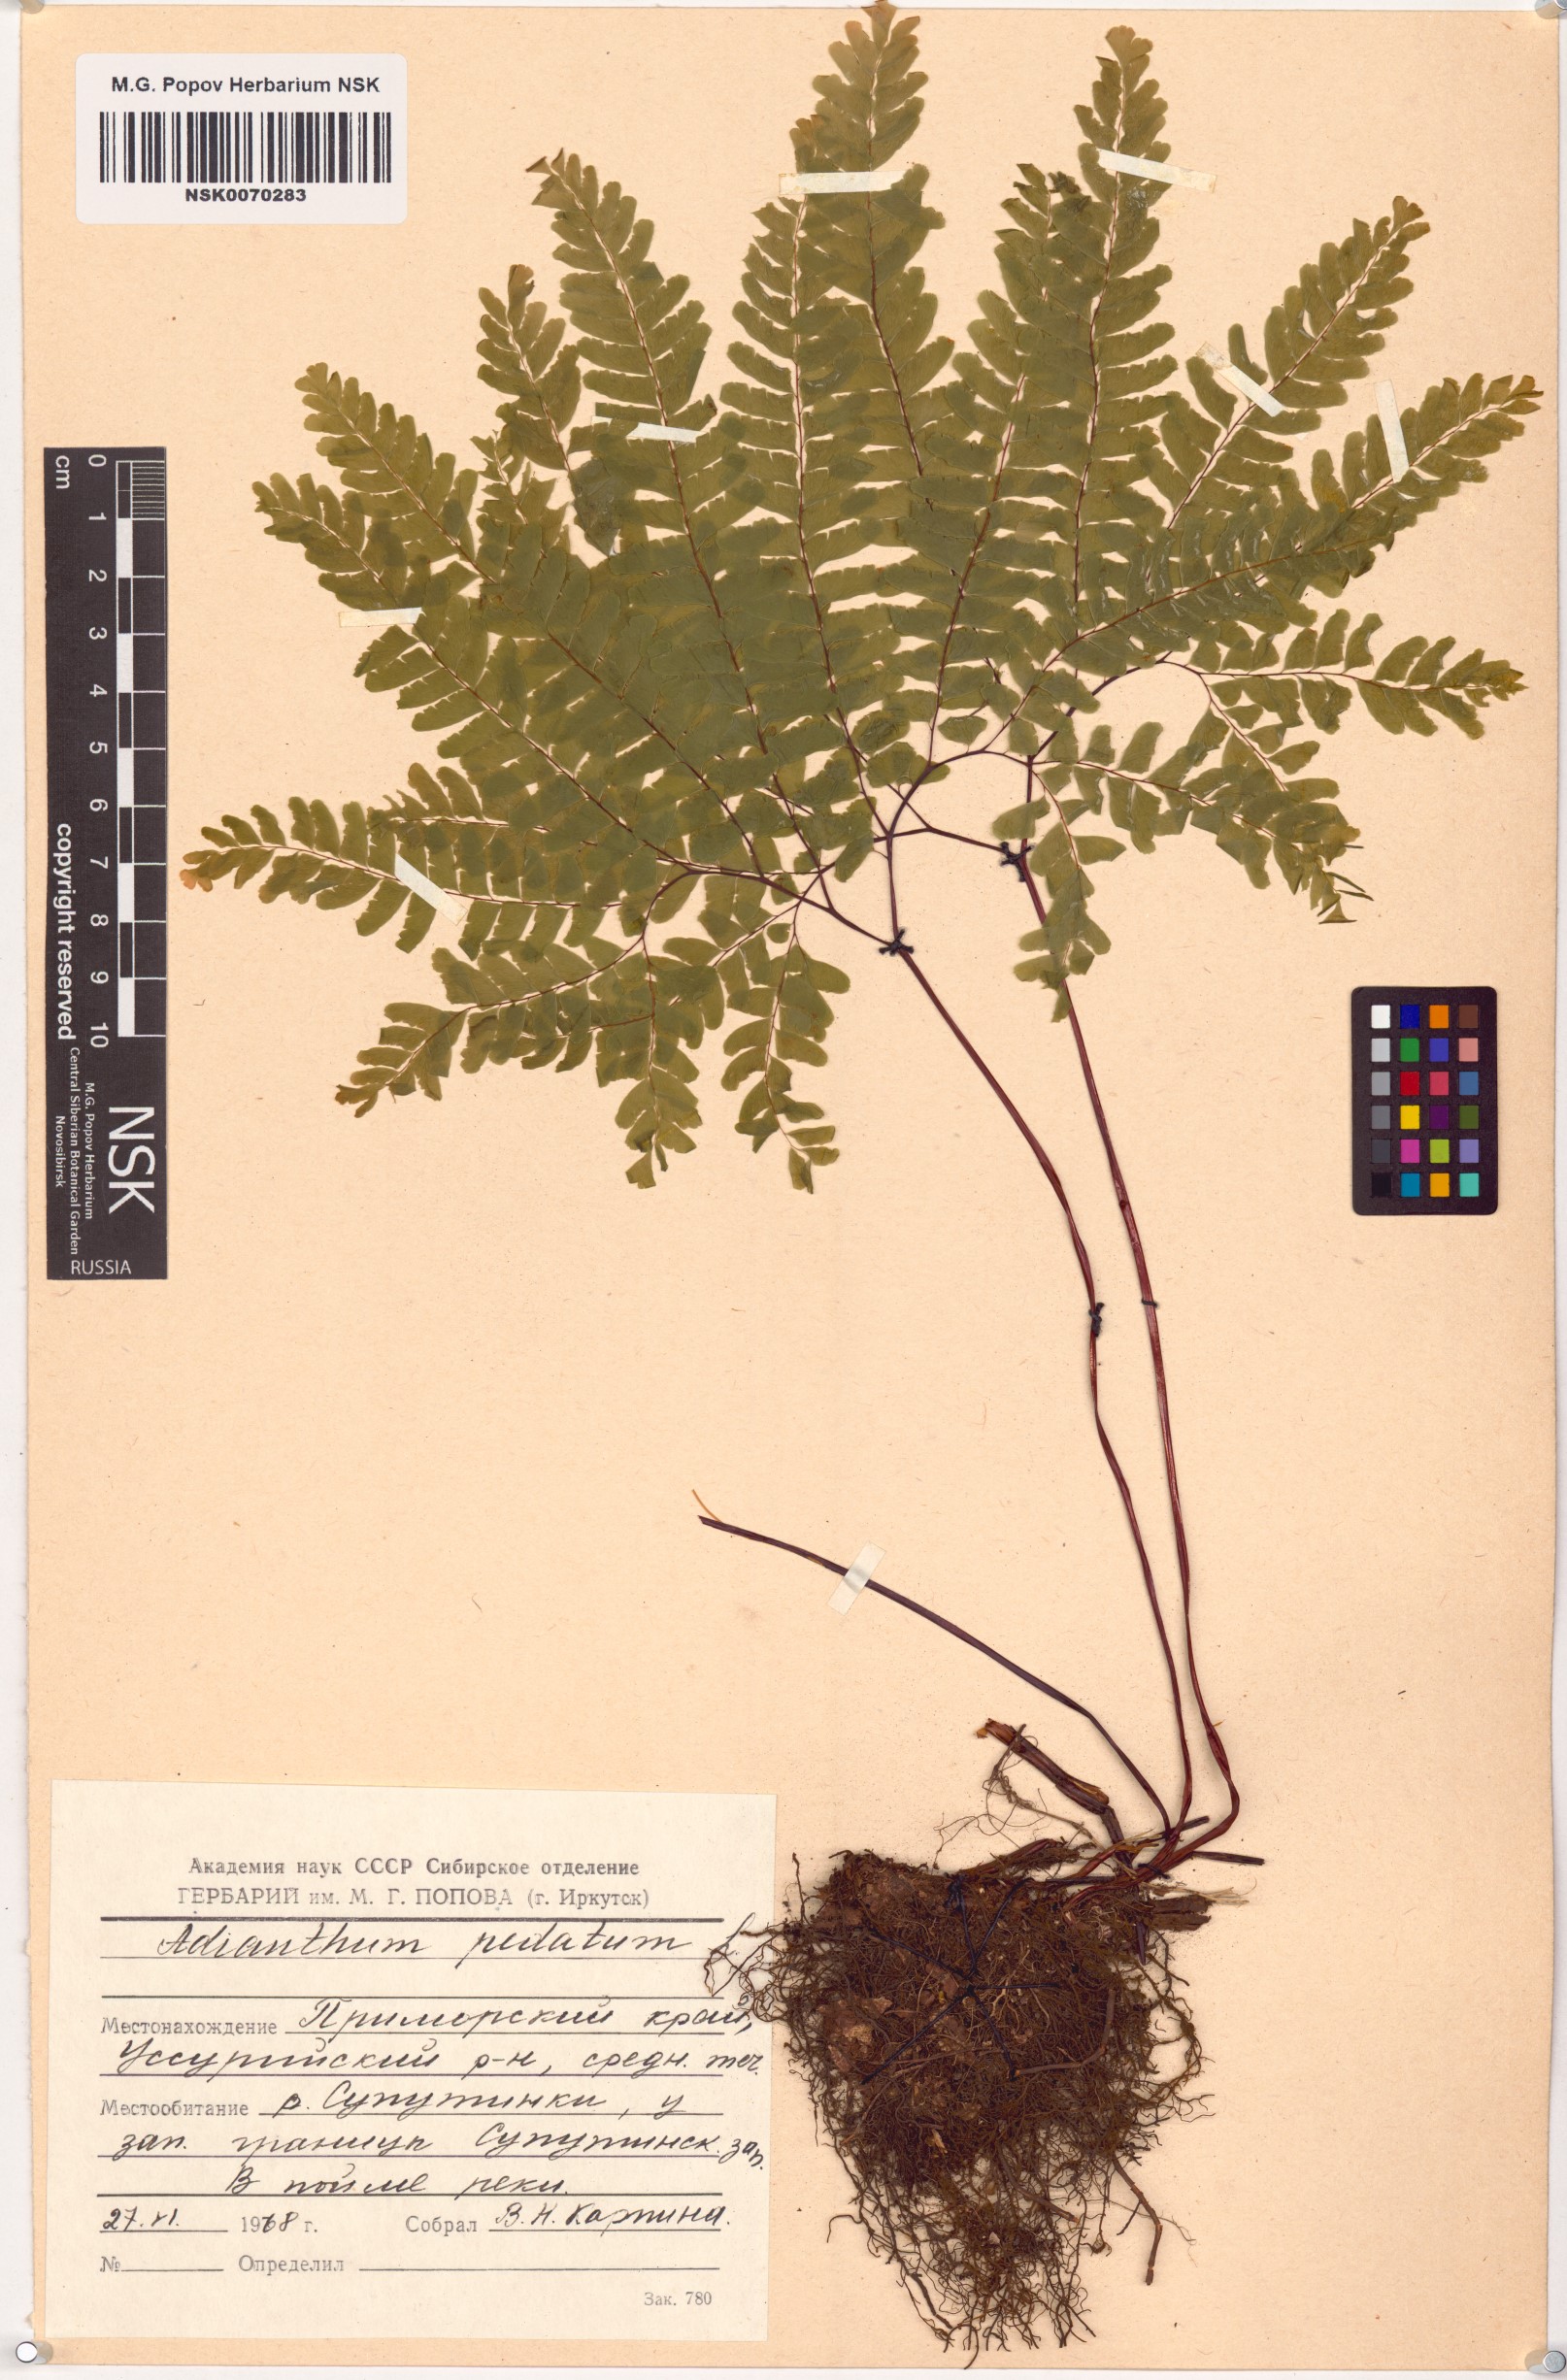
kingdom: Plantae
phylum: Tracheophyta
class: Polypodiopsida
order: Polypodiales
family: Pteridaceae
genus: Adiantum
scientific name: Adiantum pedatum
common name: Five-finger fern
